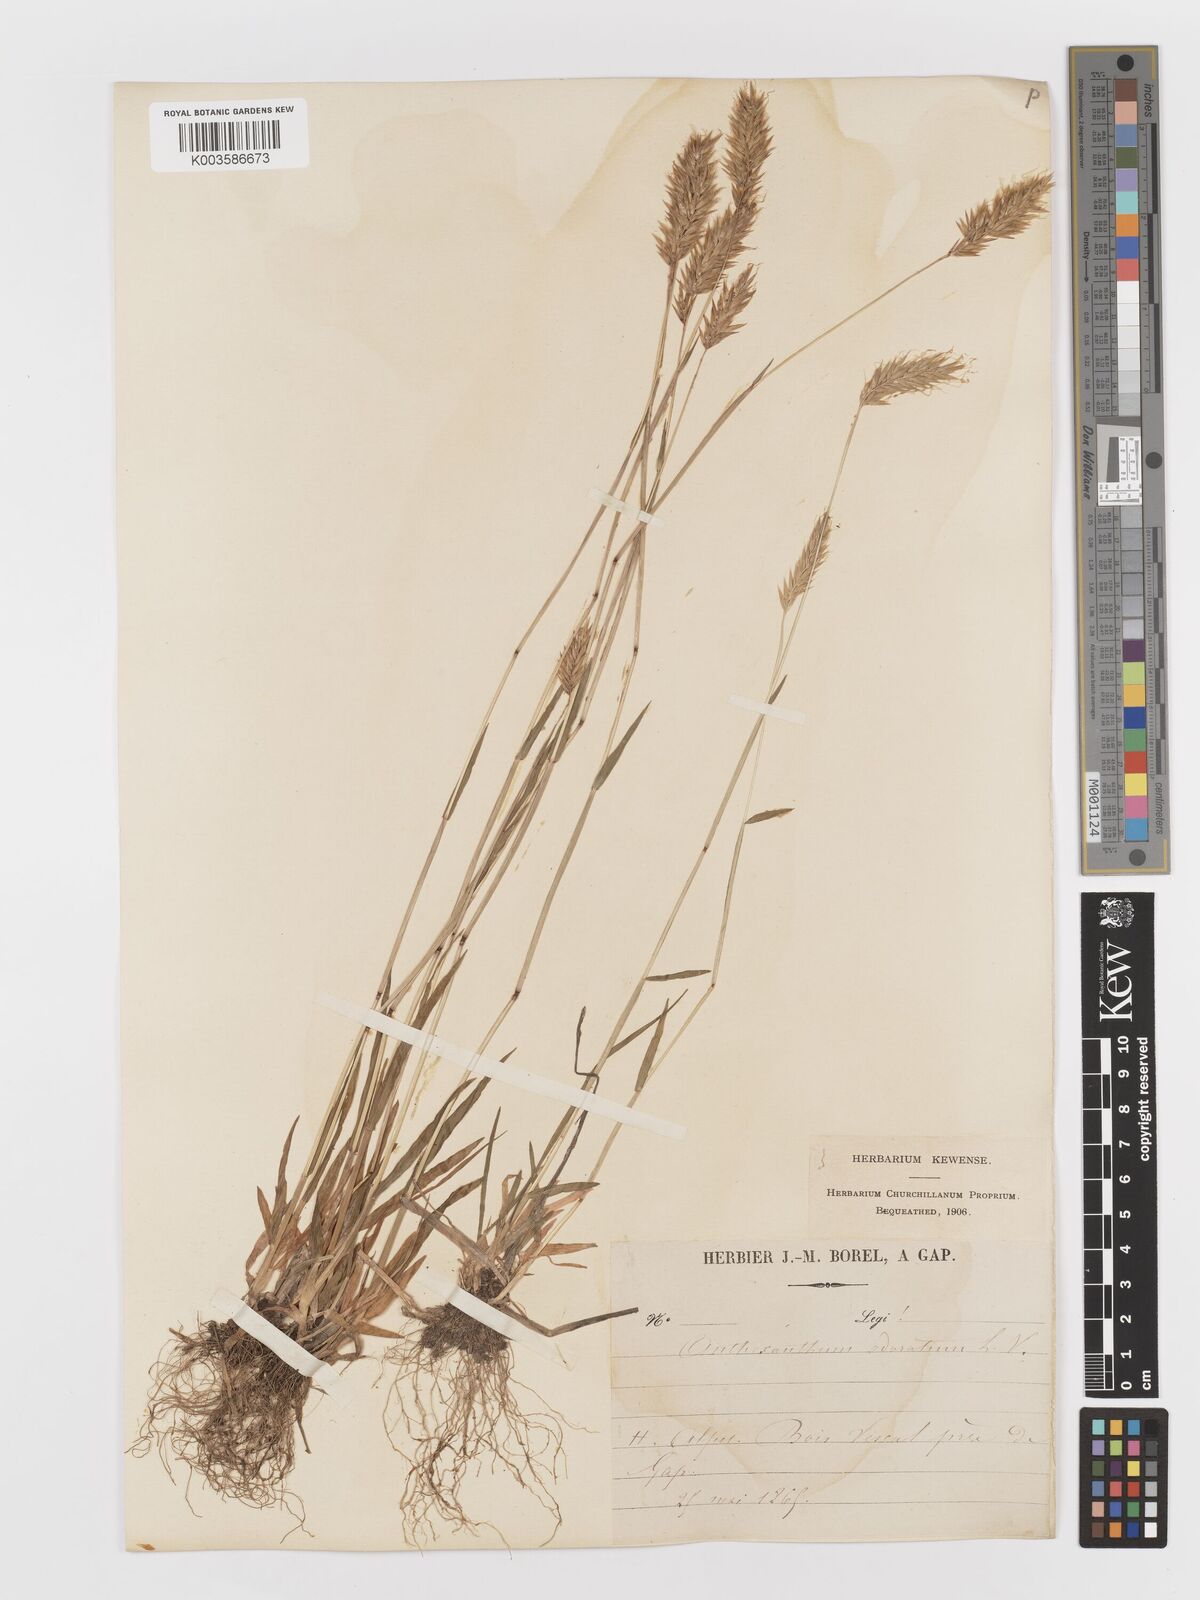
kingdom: Plantae
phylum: Tracheophyta
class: Liliopsida
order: Poales
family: Poaceae
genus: Anthoxanthum
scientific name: Anthoxanthum odoratum
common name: Sweet vernalgrass
